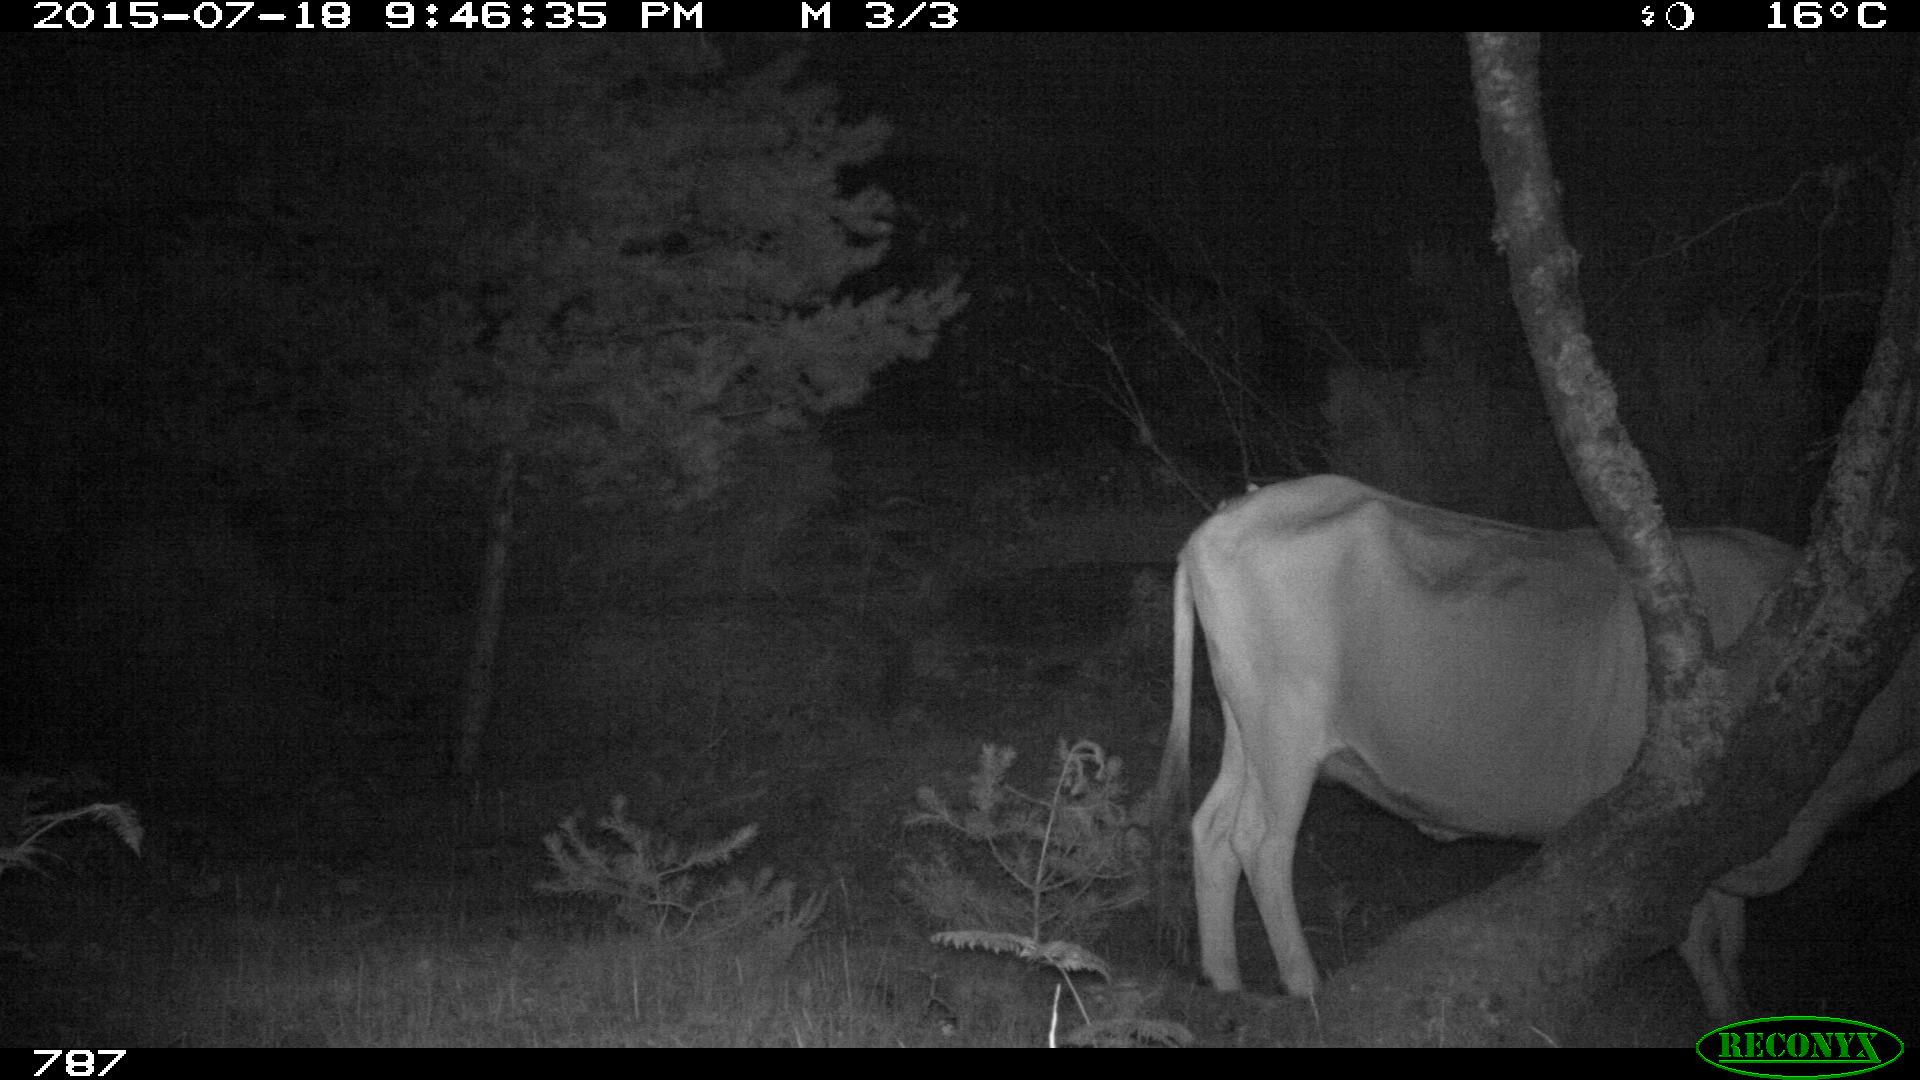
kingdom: Animalia
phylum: Chordata
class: Mammalia
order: Artiodactyla
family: Bovidae
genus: Bos
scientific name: Bos taurus
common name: Domesticated cattle
